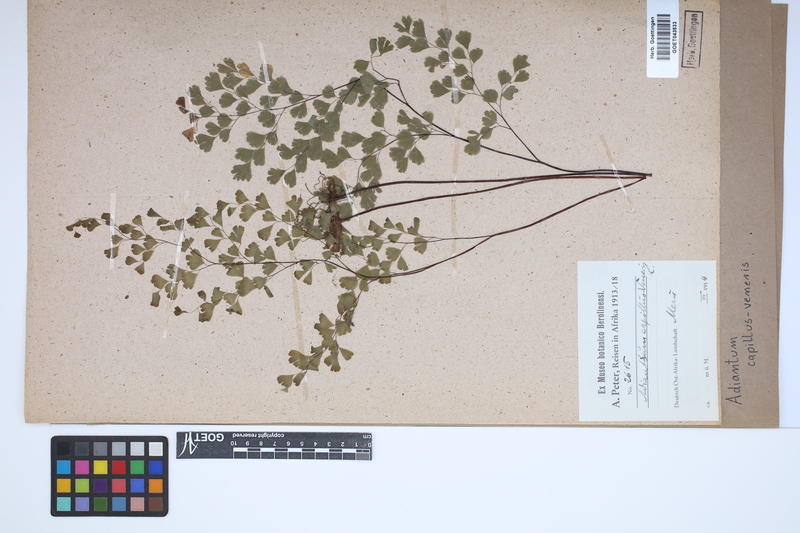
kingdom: Plantae
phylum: Tracheophyta
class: Polypodiopsida
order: Polypodiales
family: Pteridaceae
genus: Adiantum
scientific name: Adiantum capillus-veneris
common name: Maidenhair fern
